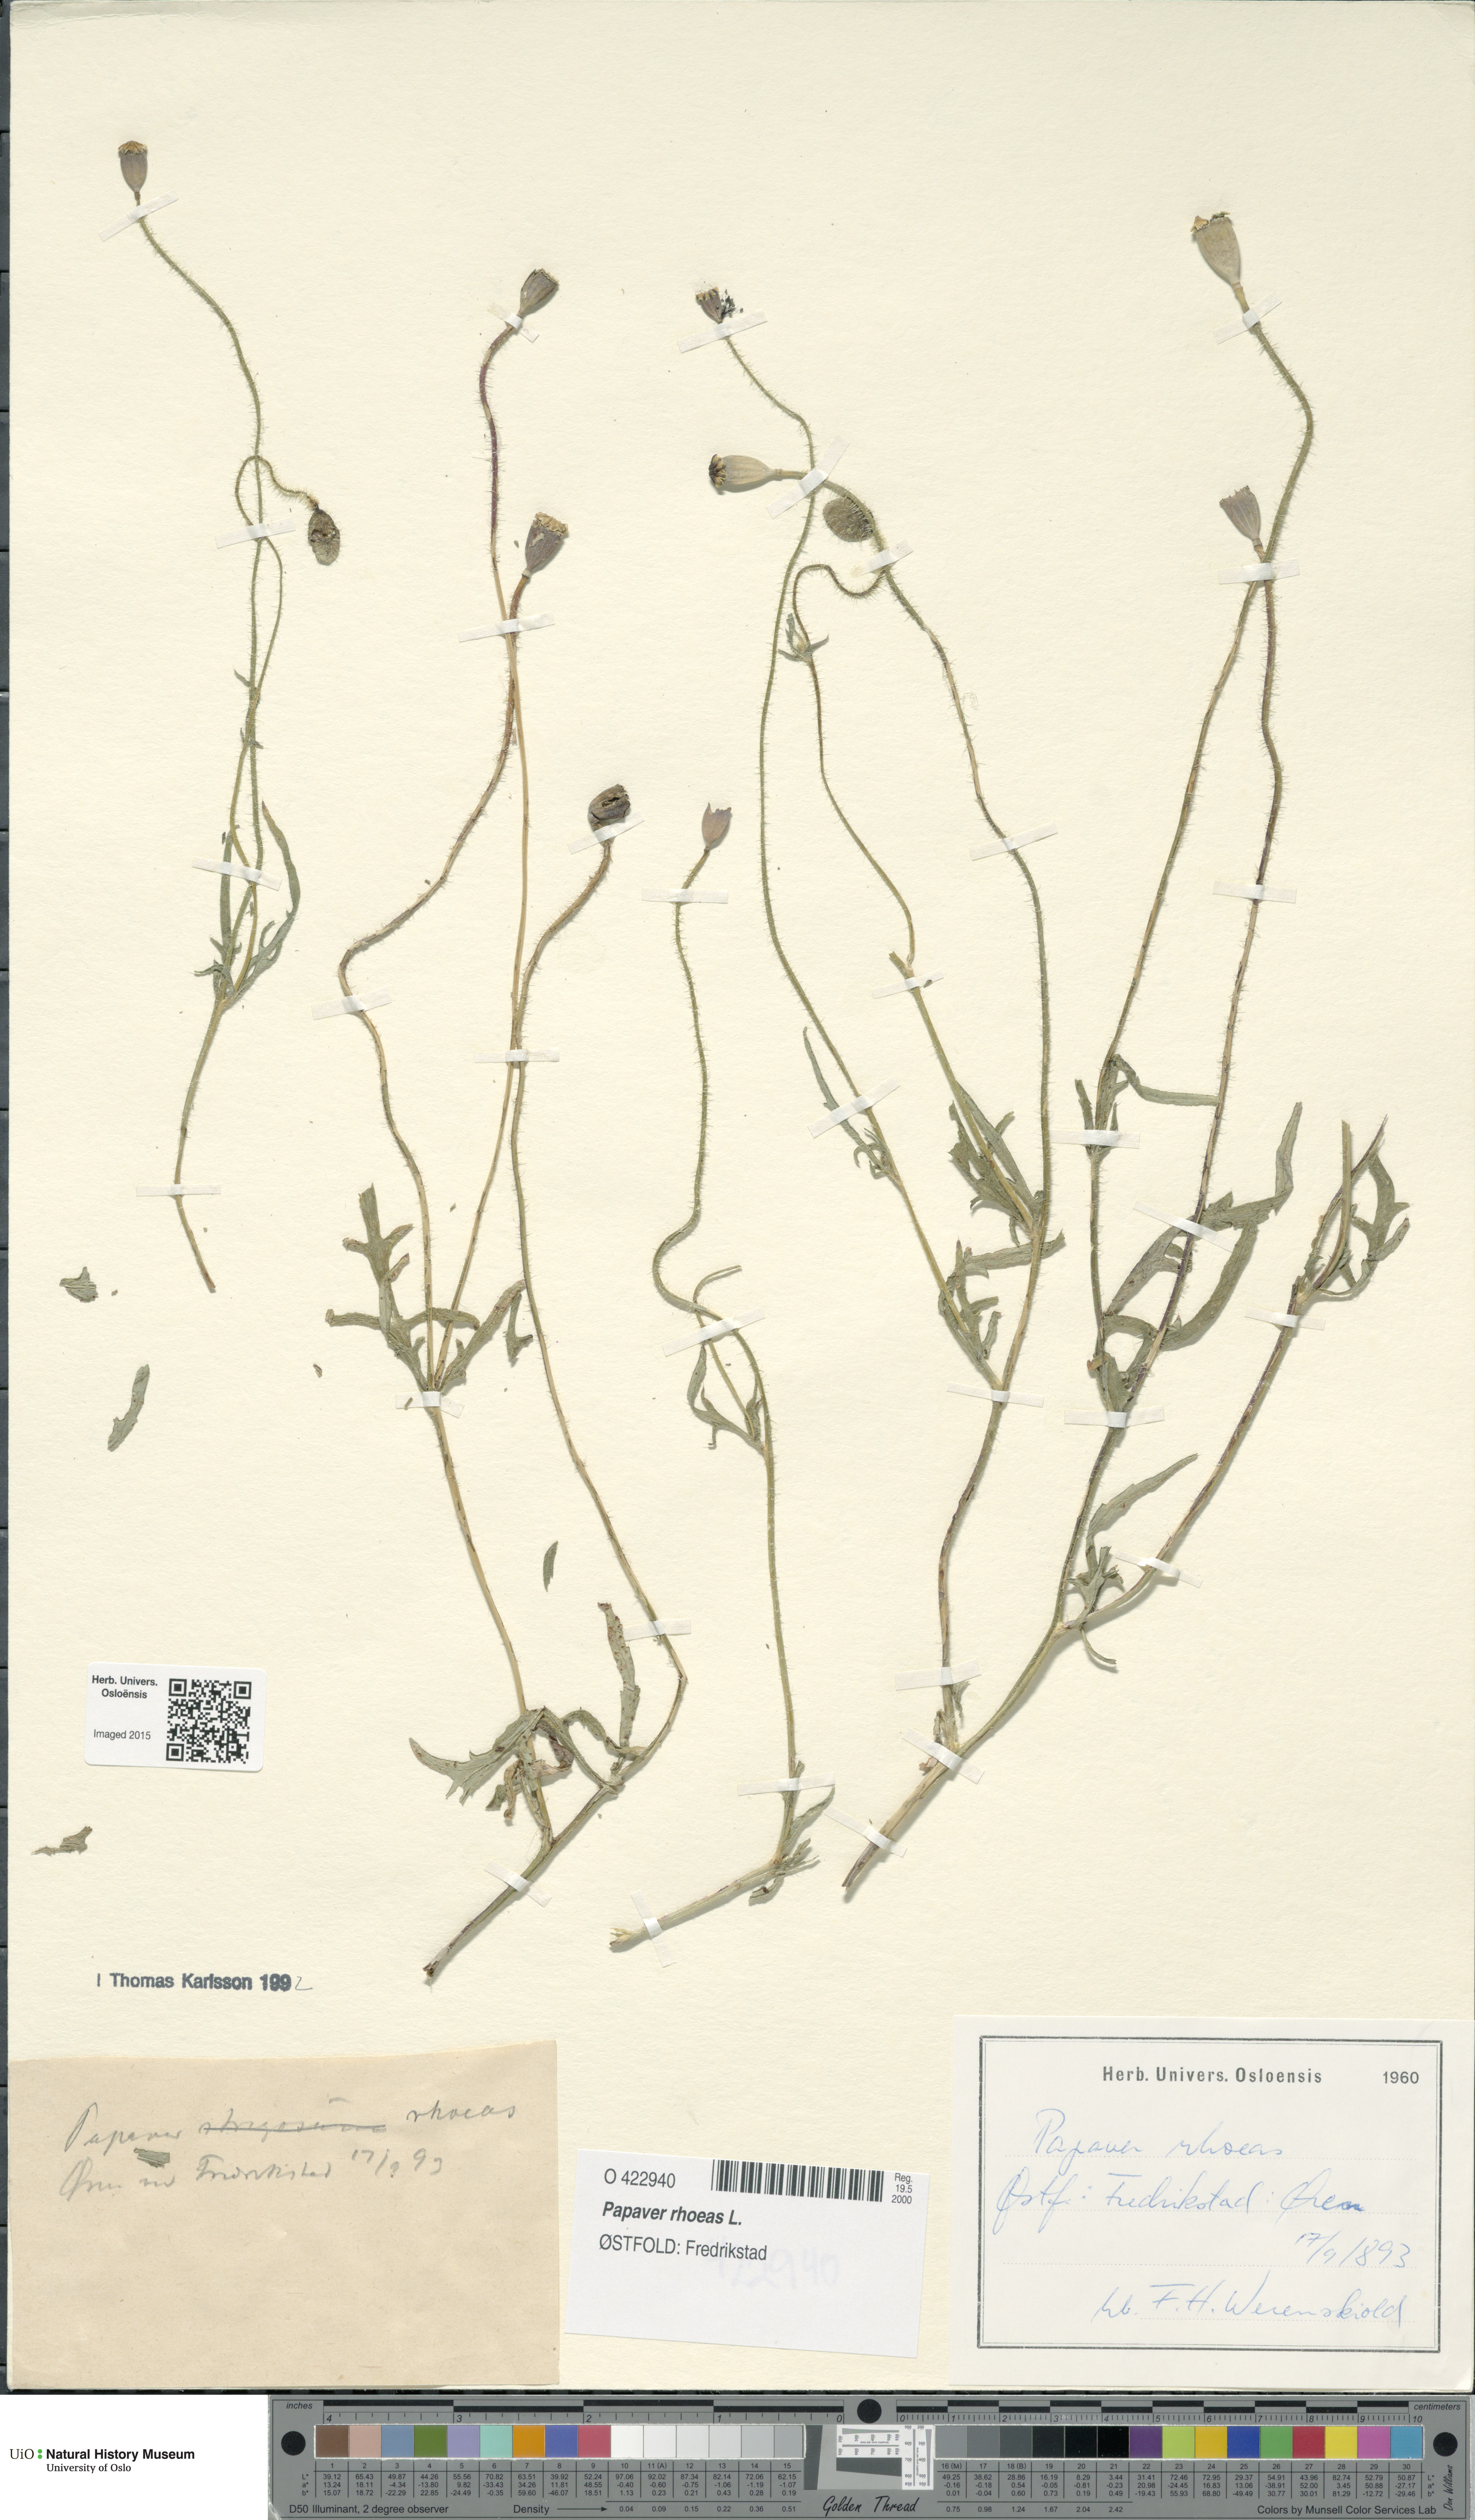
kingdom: Plantae
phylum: Tracheophyta
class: Magnoliopsida
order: Ranunculales
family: Papaveraceae
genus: Papaver
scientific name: Papaver rhoeas
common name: Corn poppy
